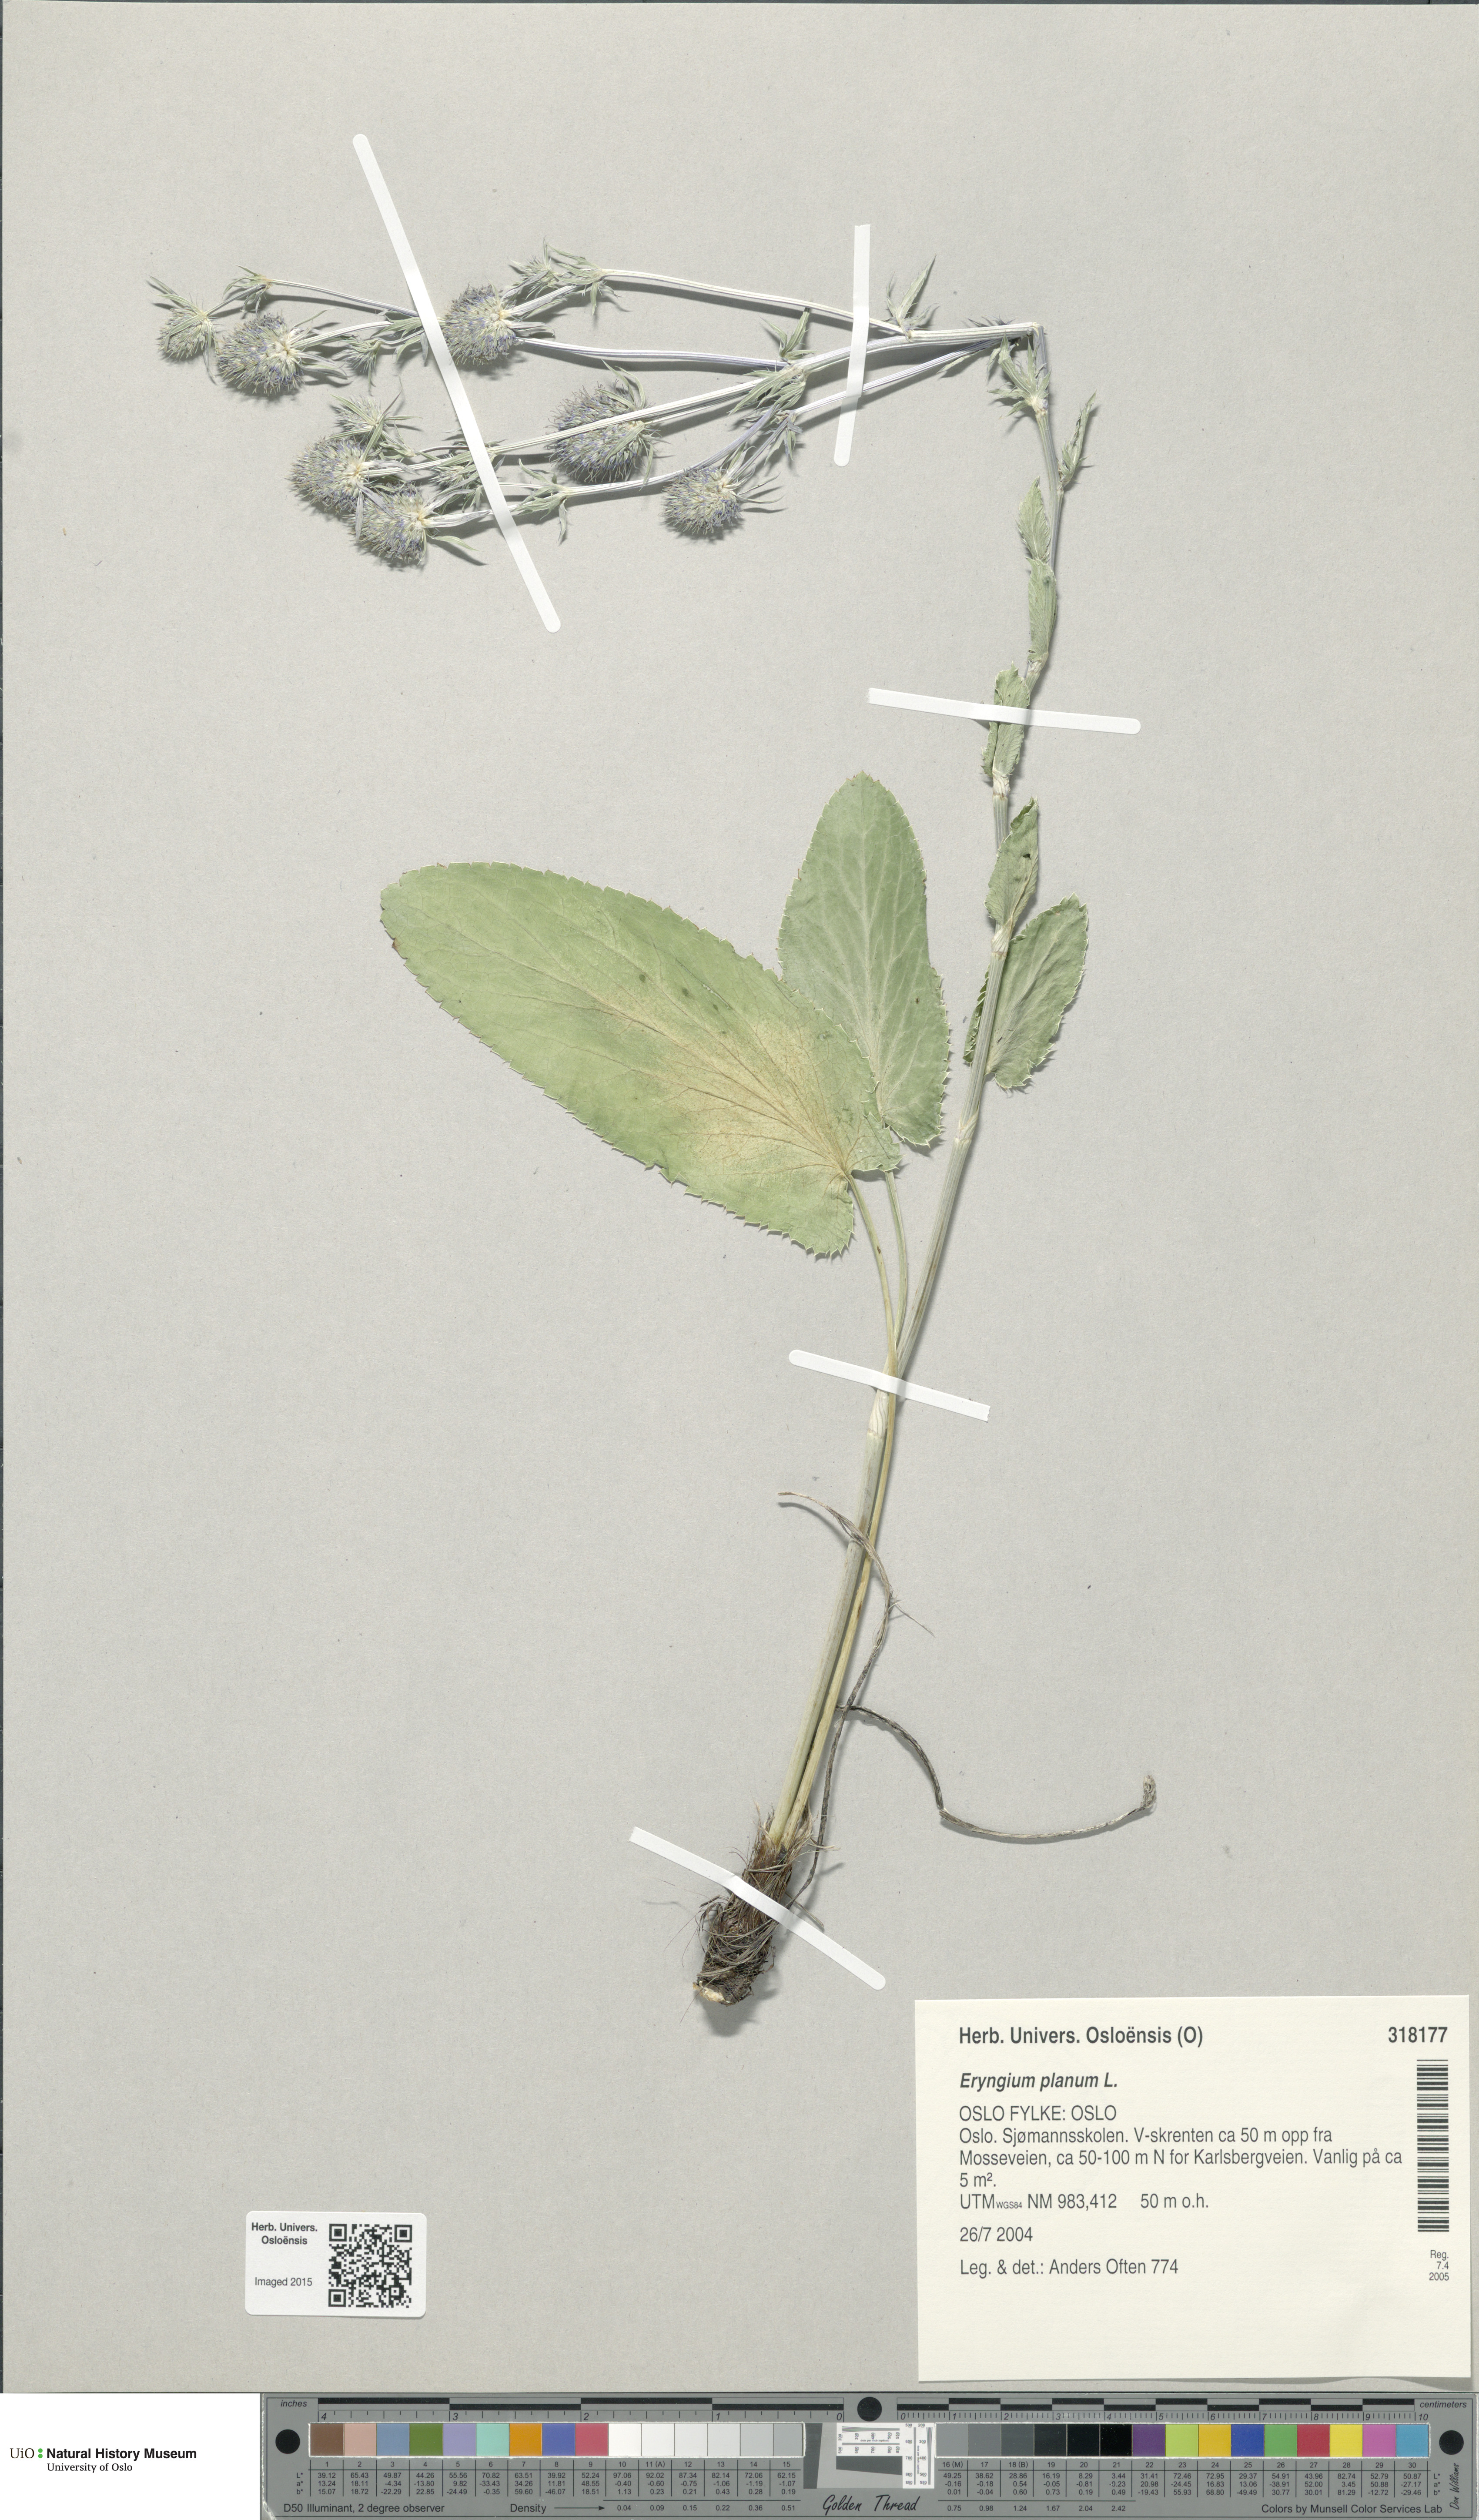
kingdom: Plantae
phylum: Tracheophyta
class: Magnoliopsida
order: Apiales
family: Apiaceae
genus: Eryngium
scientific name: Eryngium planum
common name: Blue eryngo
